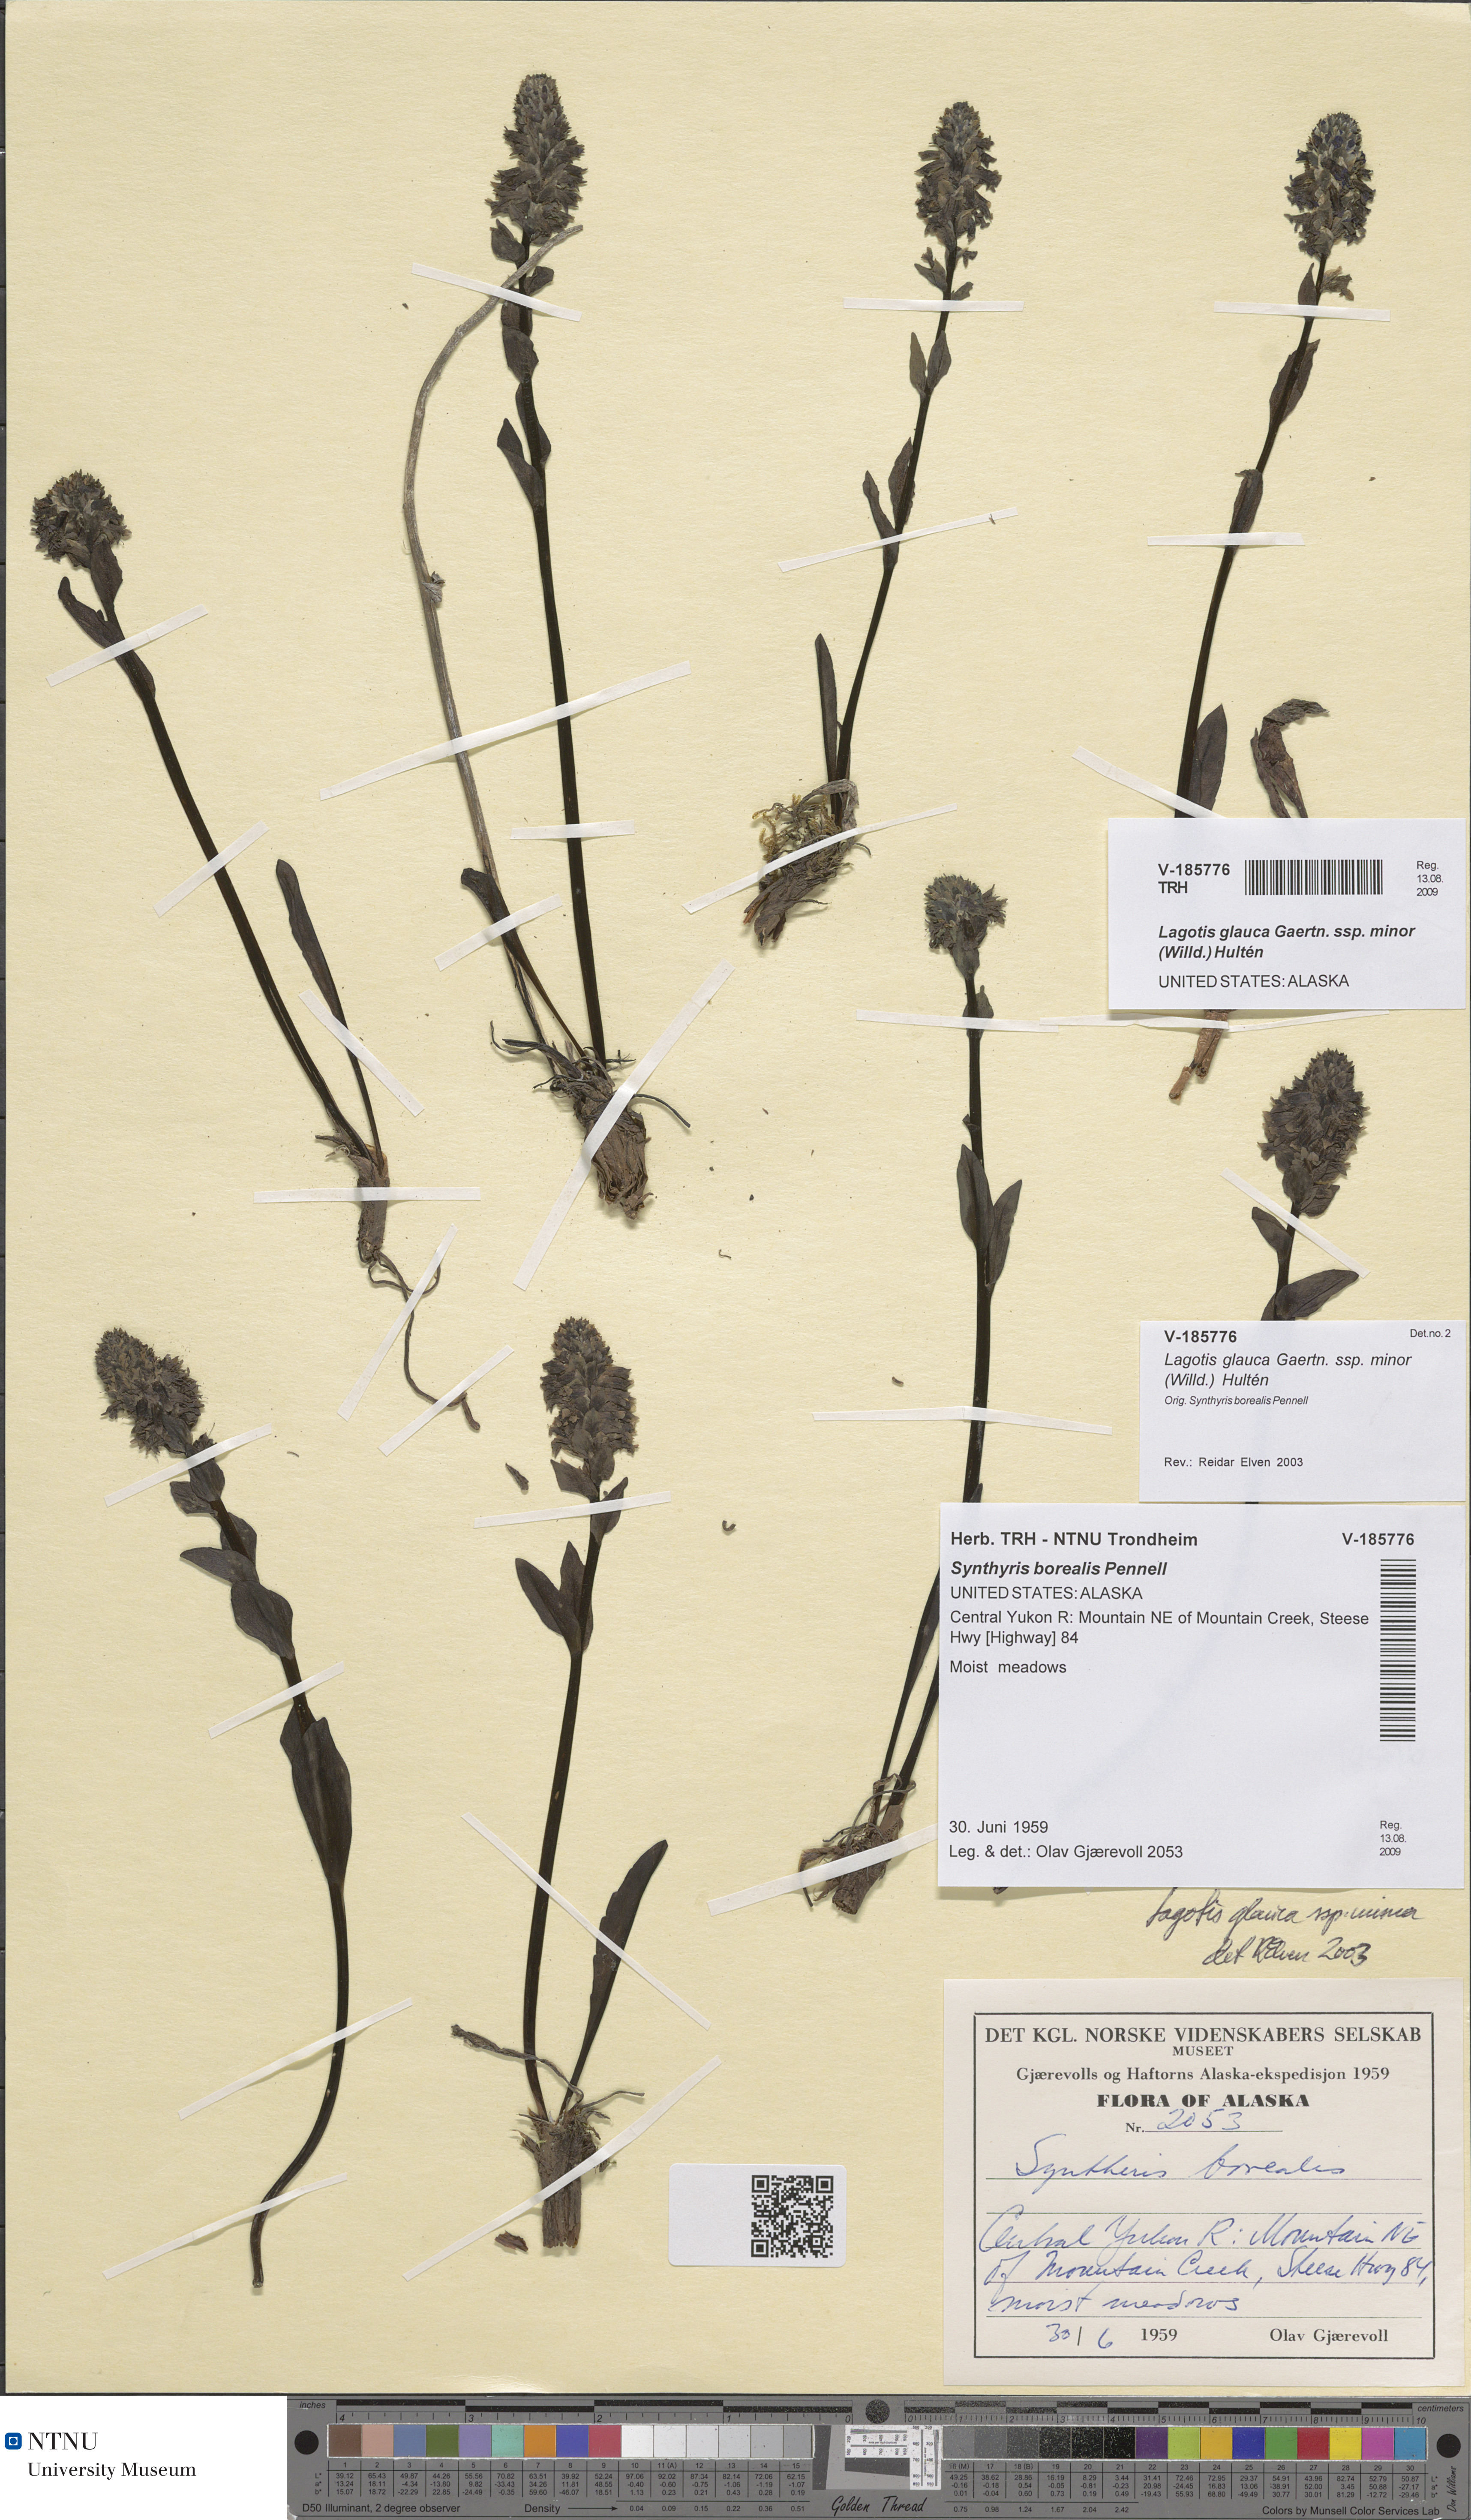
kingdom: Plantae
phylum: Tracheophyta
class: Magnoliopsida
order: Lamiales
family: Plantaginaceae
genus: Lagotis
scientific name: Lagotis glauca
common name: Glaucous weaselsnout
